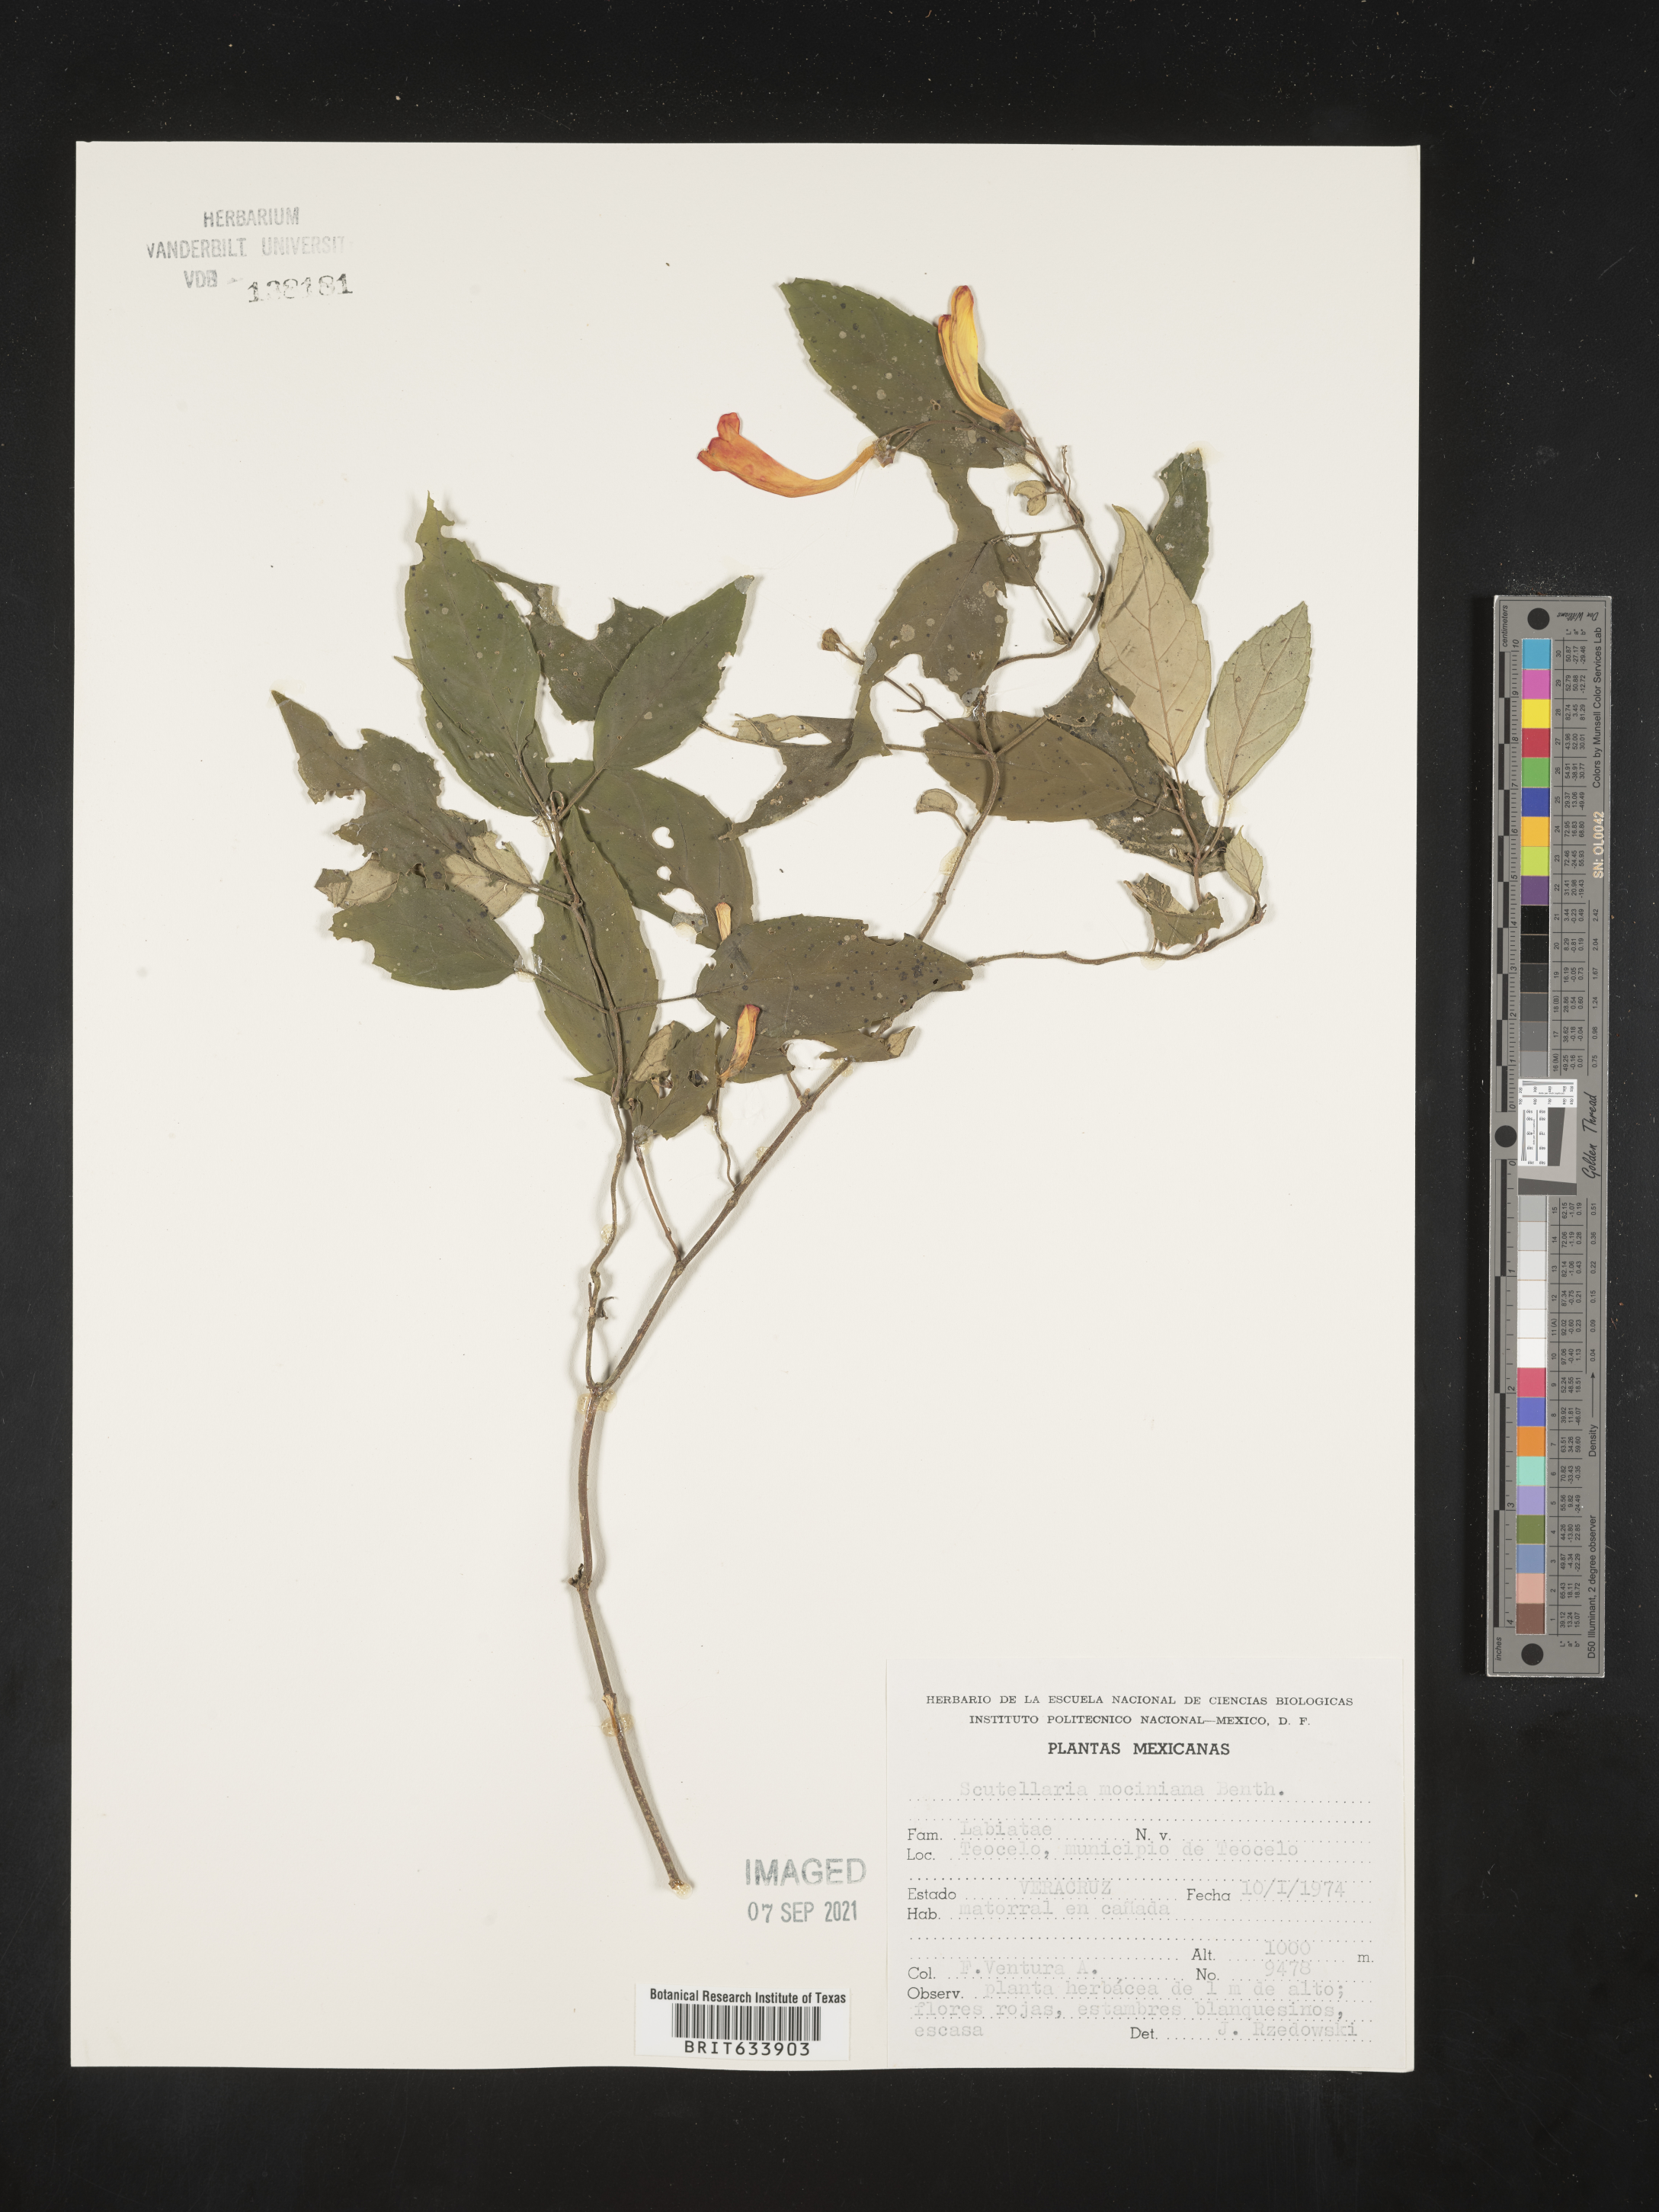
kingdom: Plantae
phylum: Tracheophyta
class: Magnoliopsida
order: Lamiales
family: Lamiaceae
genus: Scutellaria
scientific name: Scutellaria
